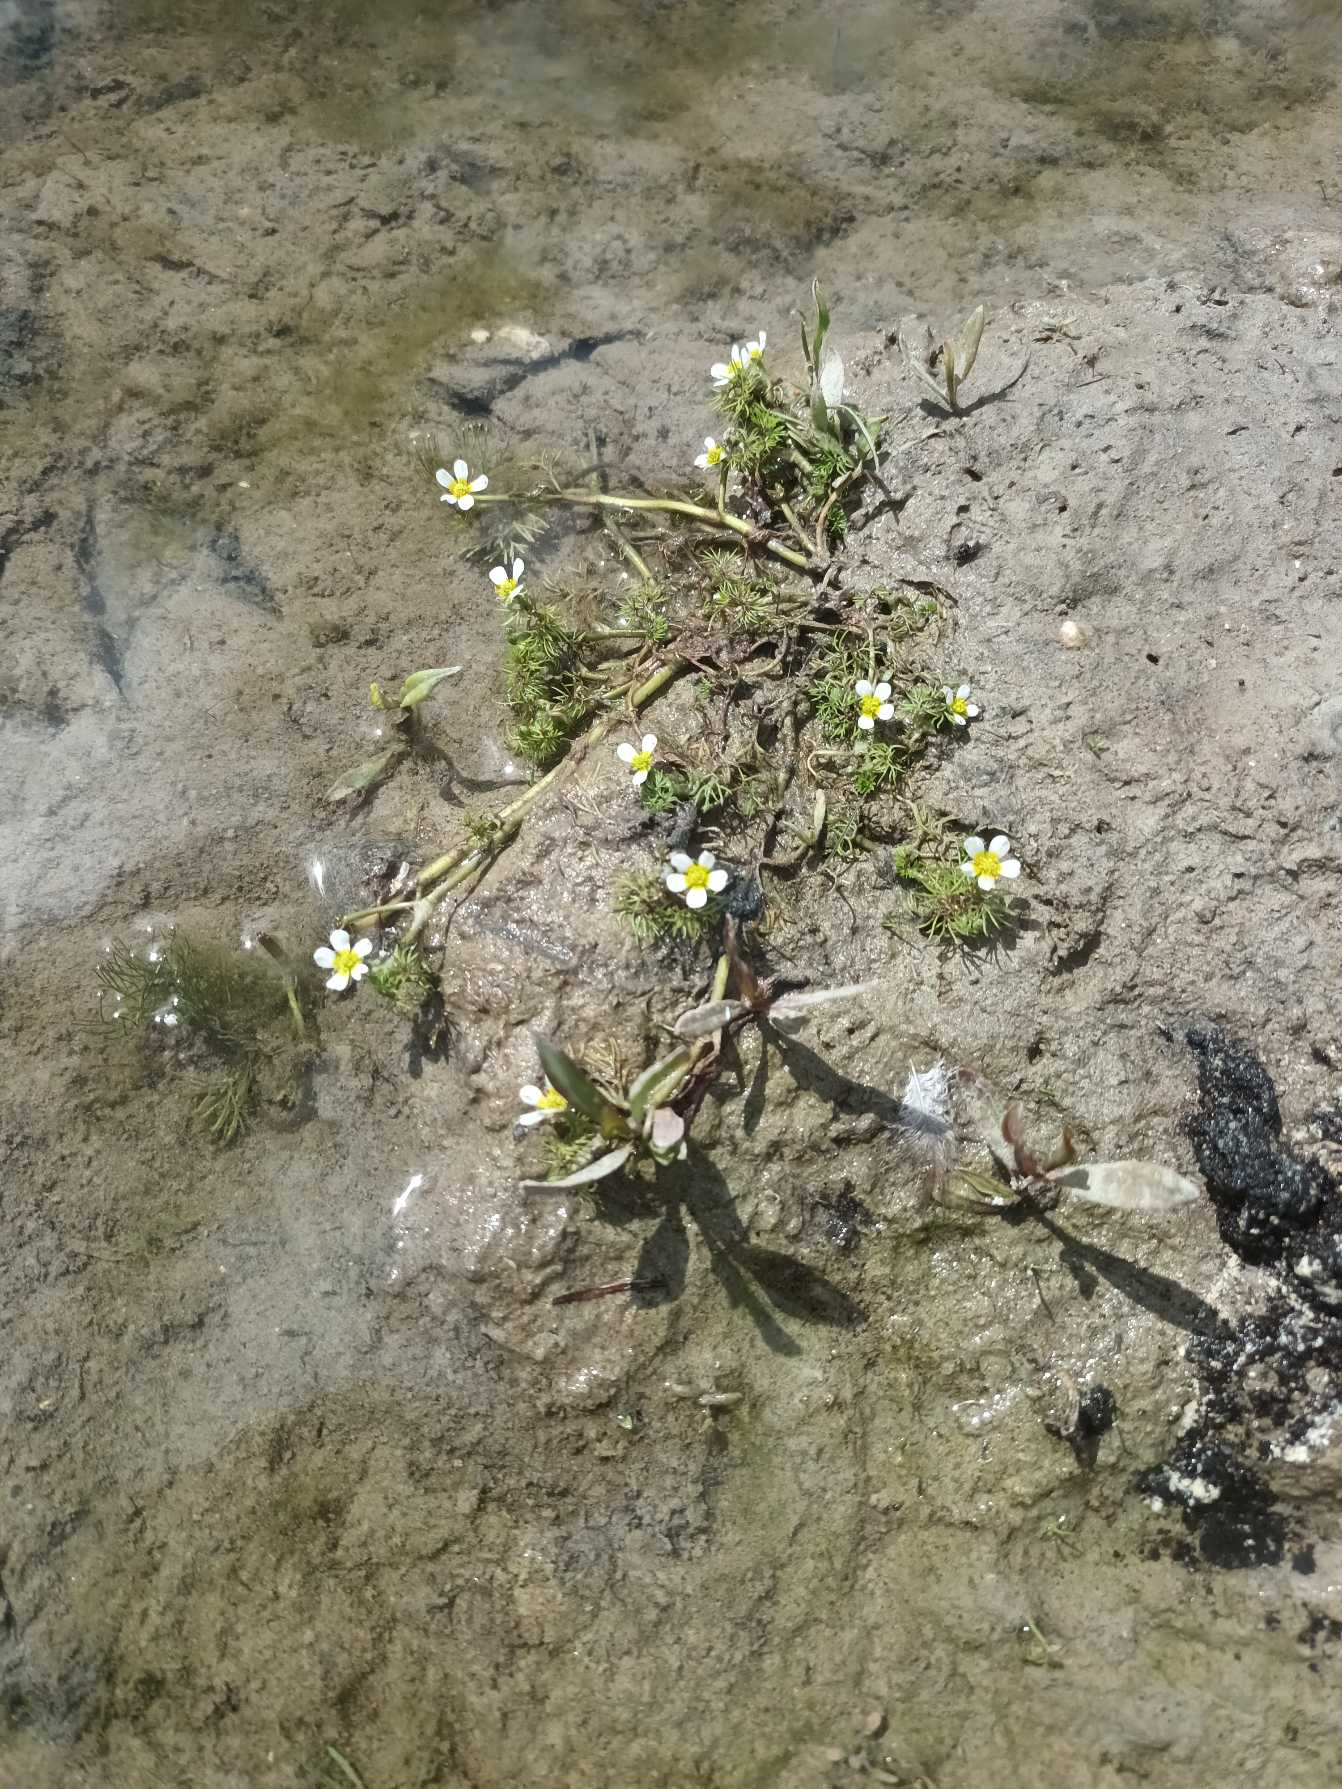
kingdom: Plantae
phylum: Tracheophyta
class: Magnoliopsida
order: Ranunculales
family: Ranunculaceae
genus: Ranunculus
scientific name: Ranunculus trichophyllus
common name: Hårfliget vandranunkel
